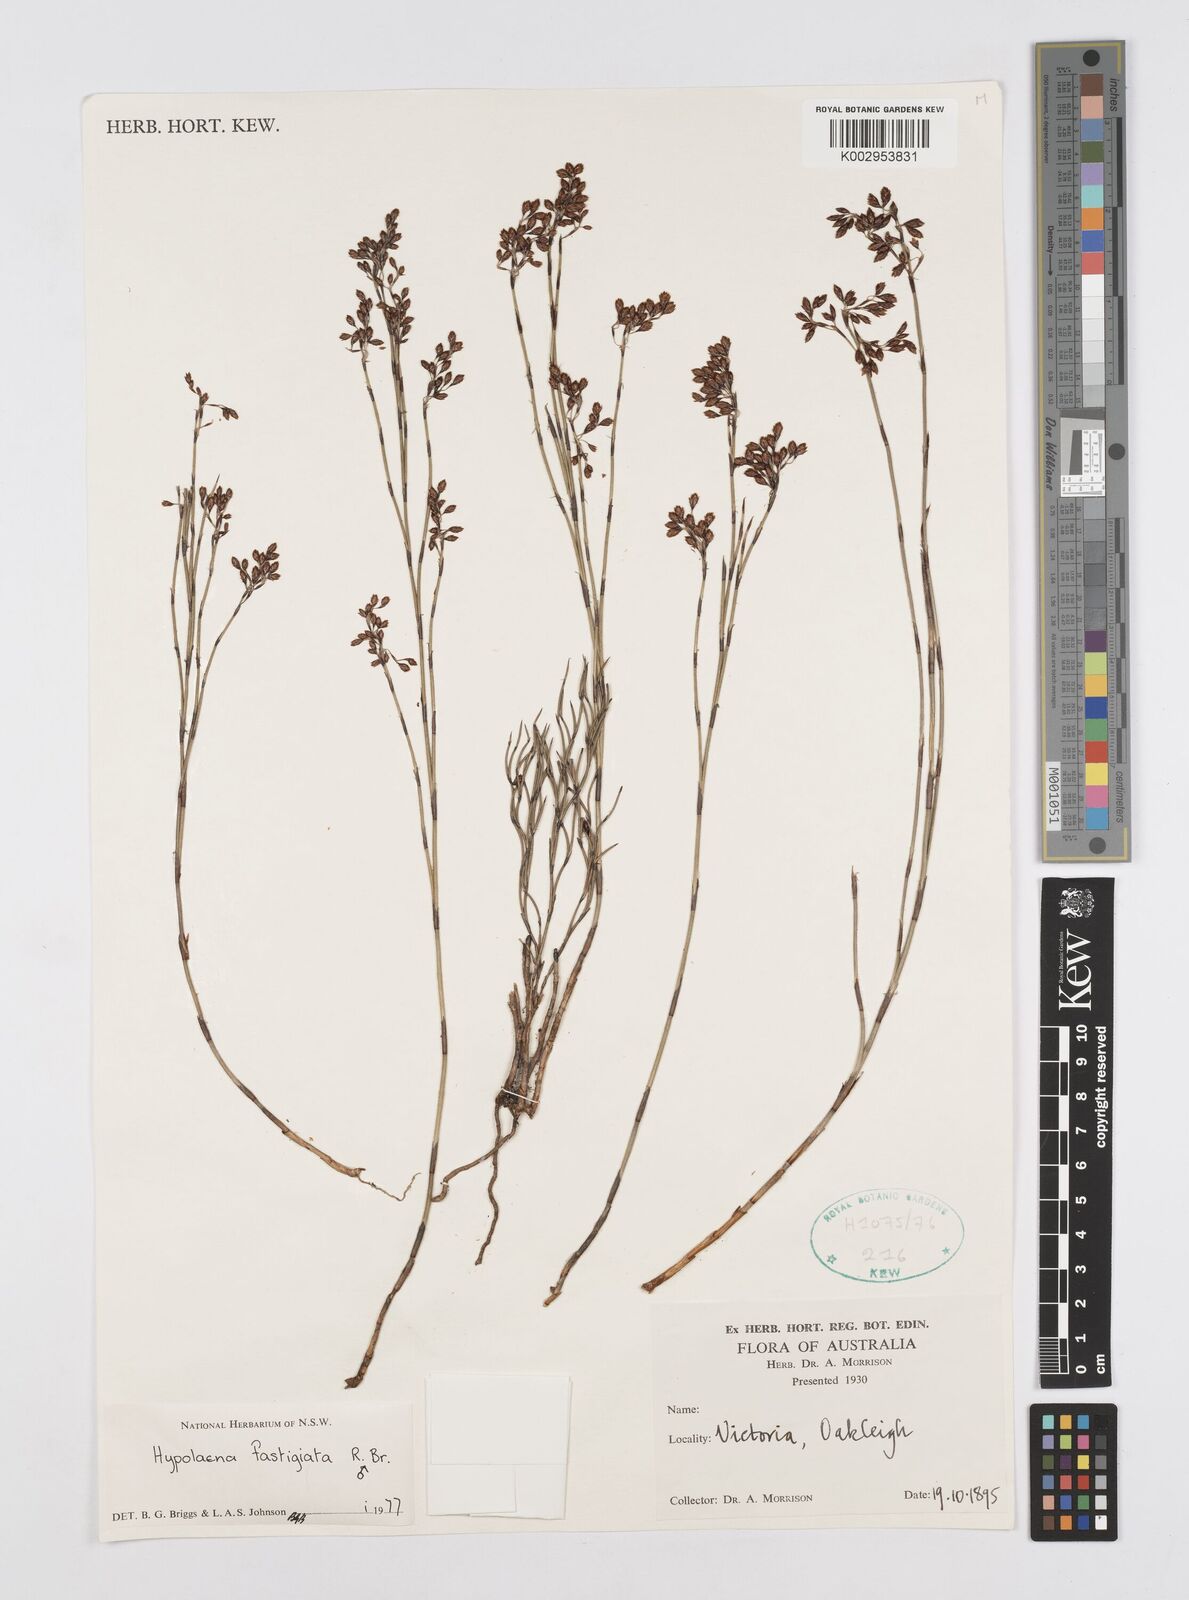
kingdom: Plantae
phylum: Tracheophyta
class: Liliopsida
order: Poales
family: Restionaceae
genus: Hypolaena
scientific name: Hypolaena fastigiata
